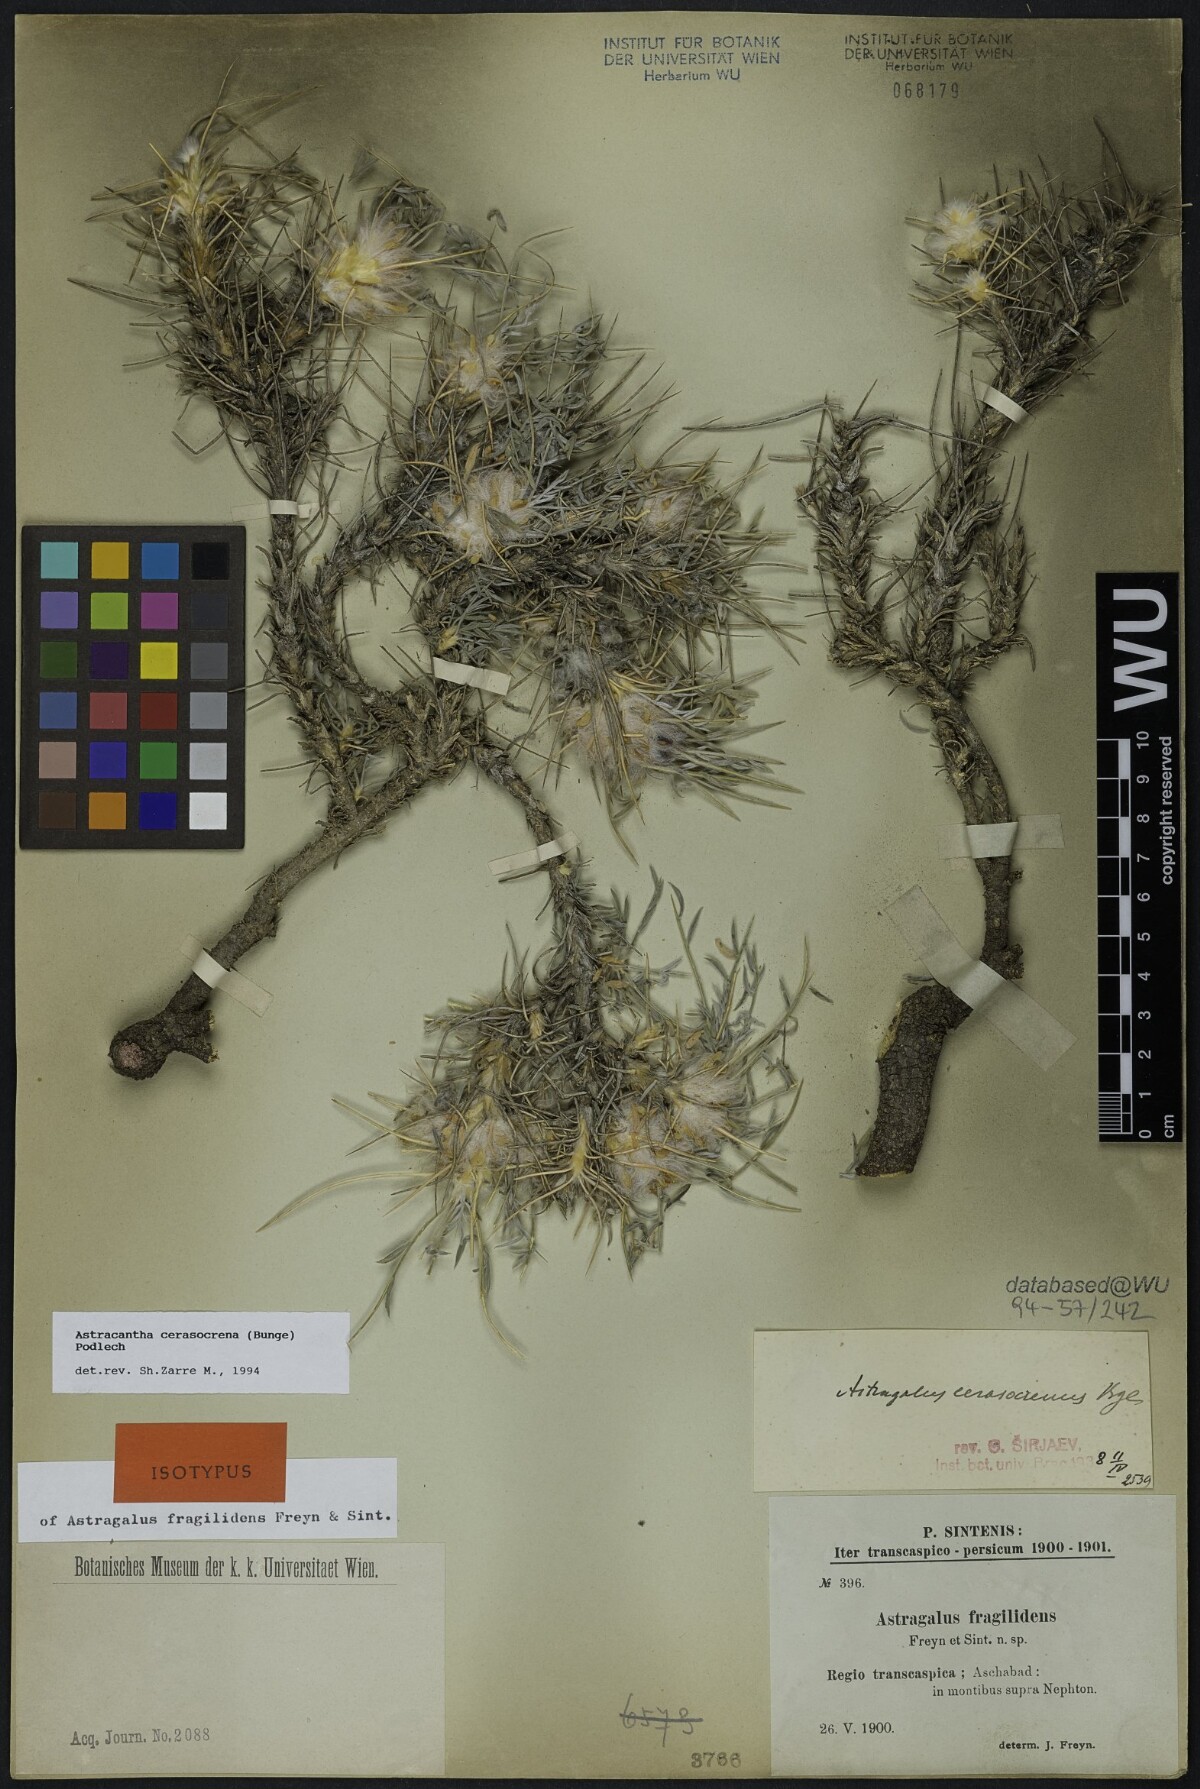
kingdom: Plantae
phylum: Tracheophyta
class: Magnoliopsida
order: Fabales
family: Fabaceae
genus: Astragalus
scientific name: Astragalus cerasocrenus
